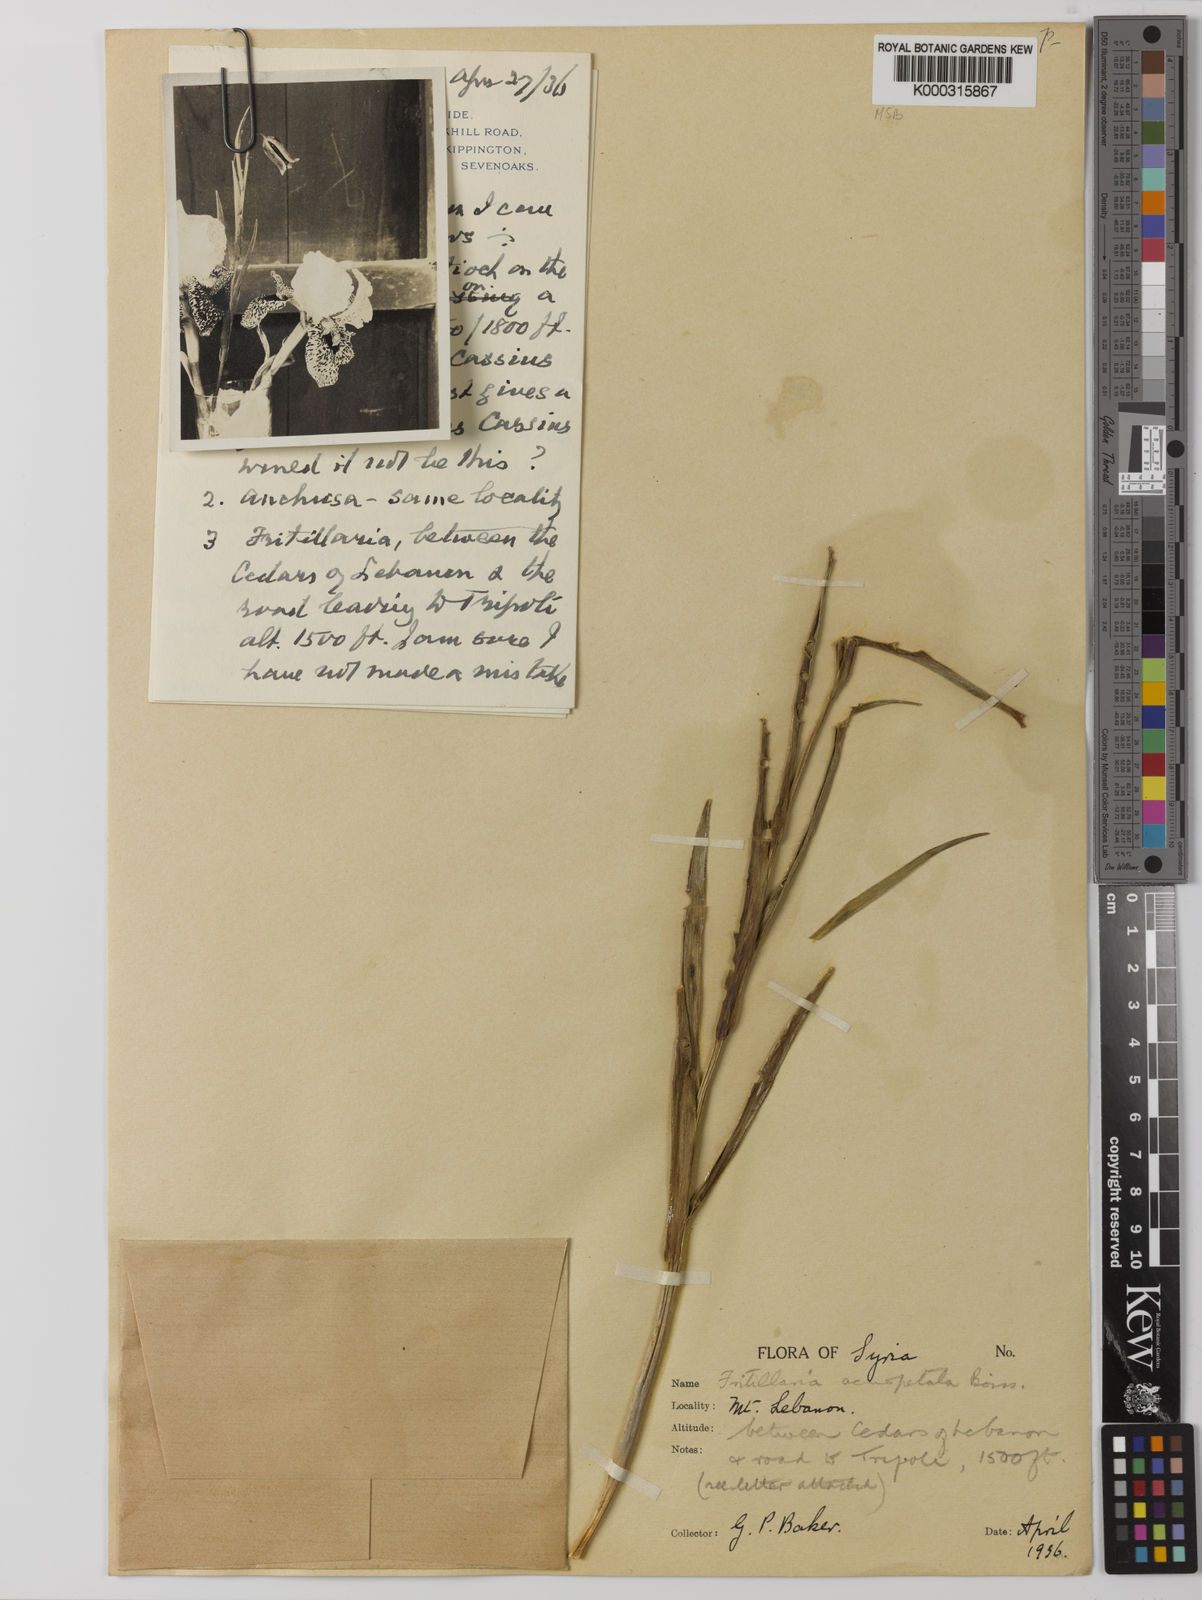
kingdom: Plantae
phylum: Tracheophyta
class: Liliopsida
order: Liliales
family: Liliaceae
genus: Fritillaria
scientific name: Fritillaria acmopetala
